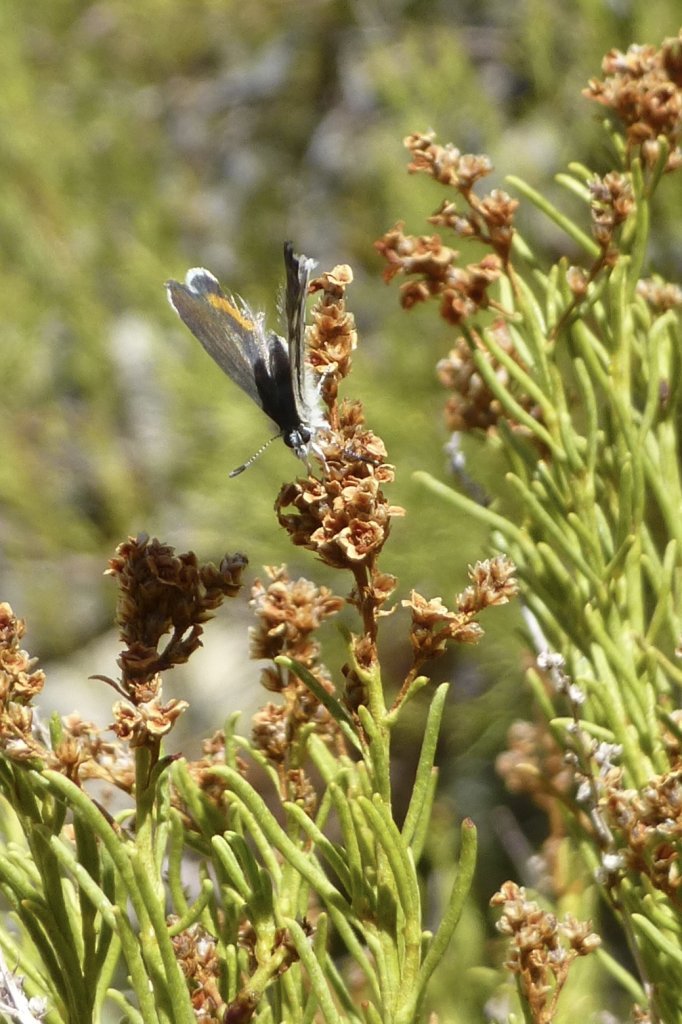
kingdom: Animalia
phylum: Arthropoda
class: Insecta
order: Lepidoptera
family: Lycaenidae
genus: Philotes
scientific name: Philotes bernardino
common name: Bernardino Blue
